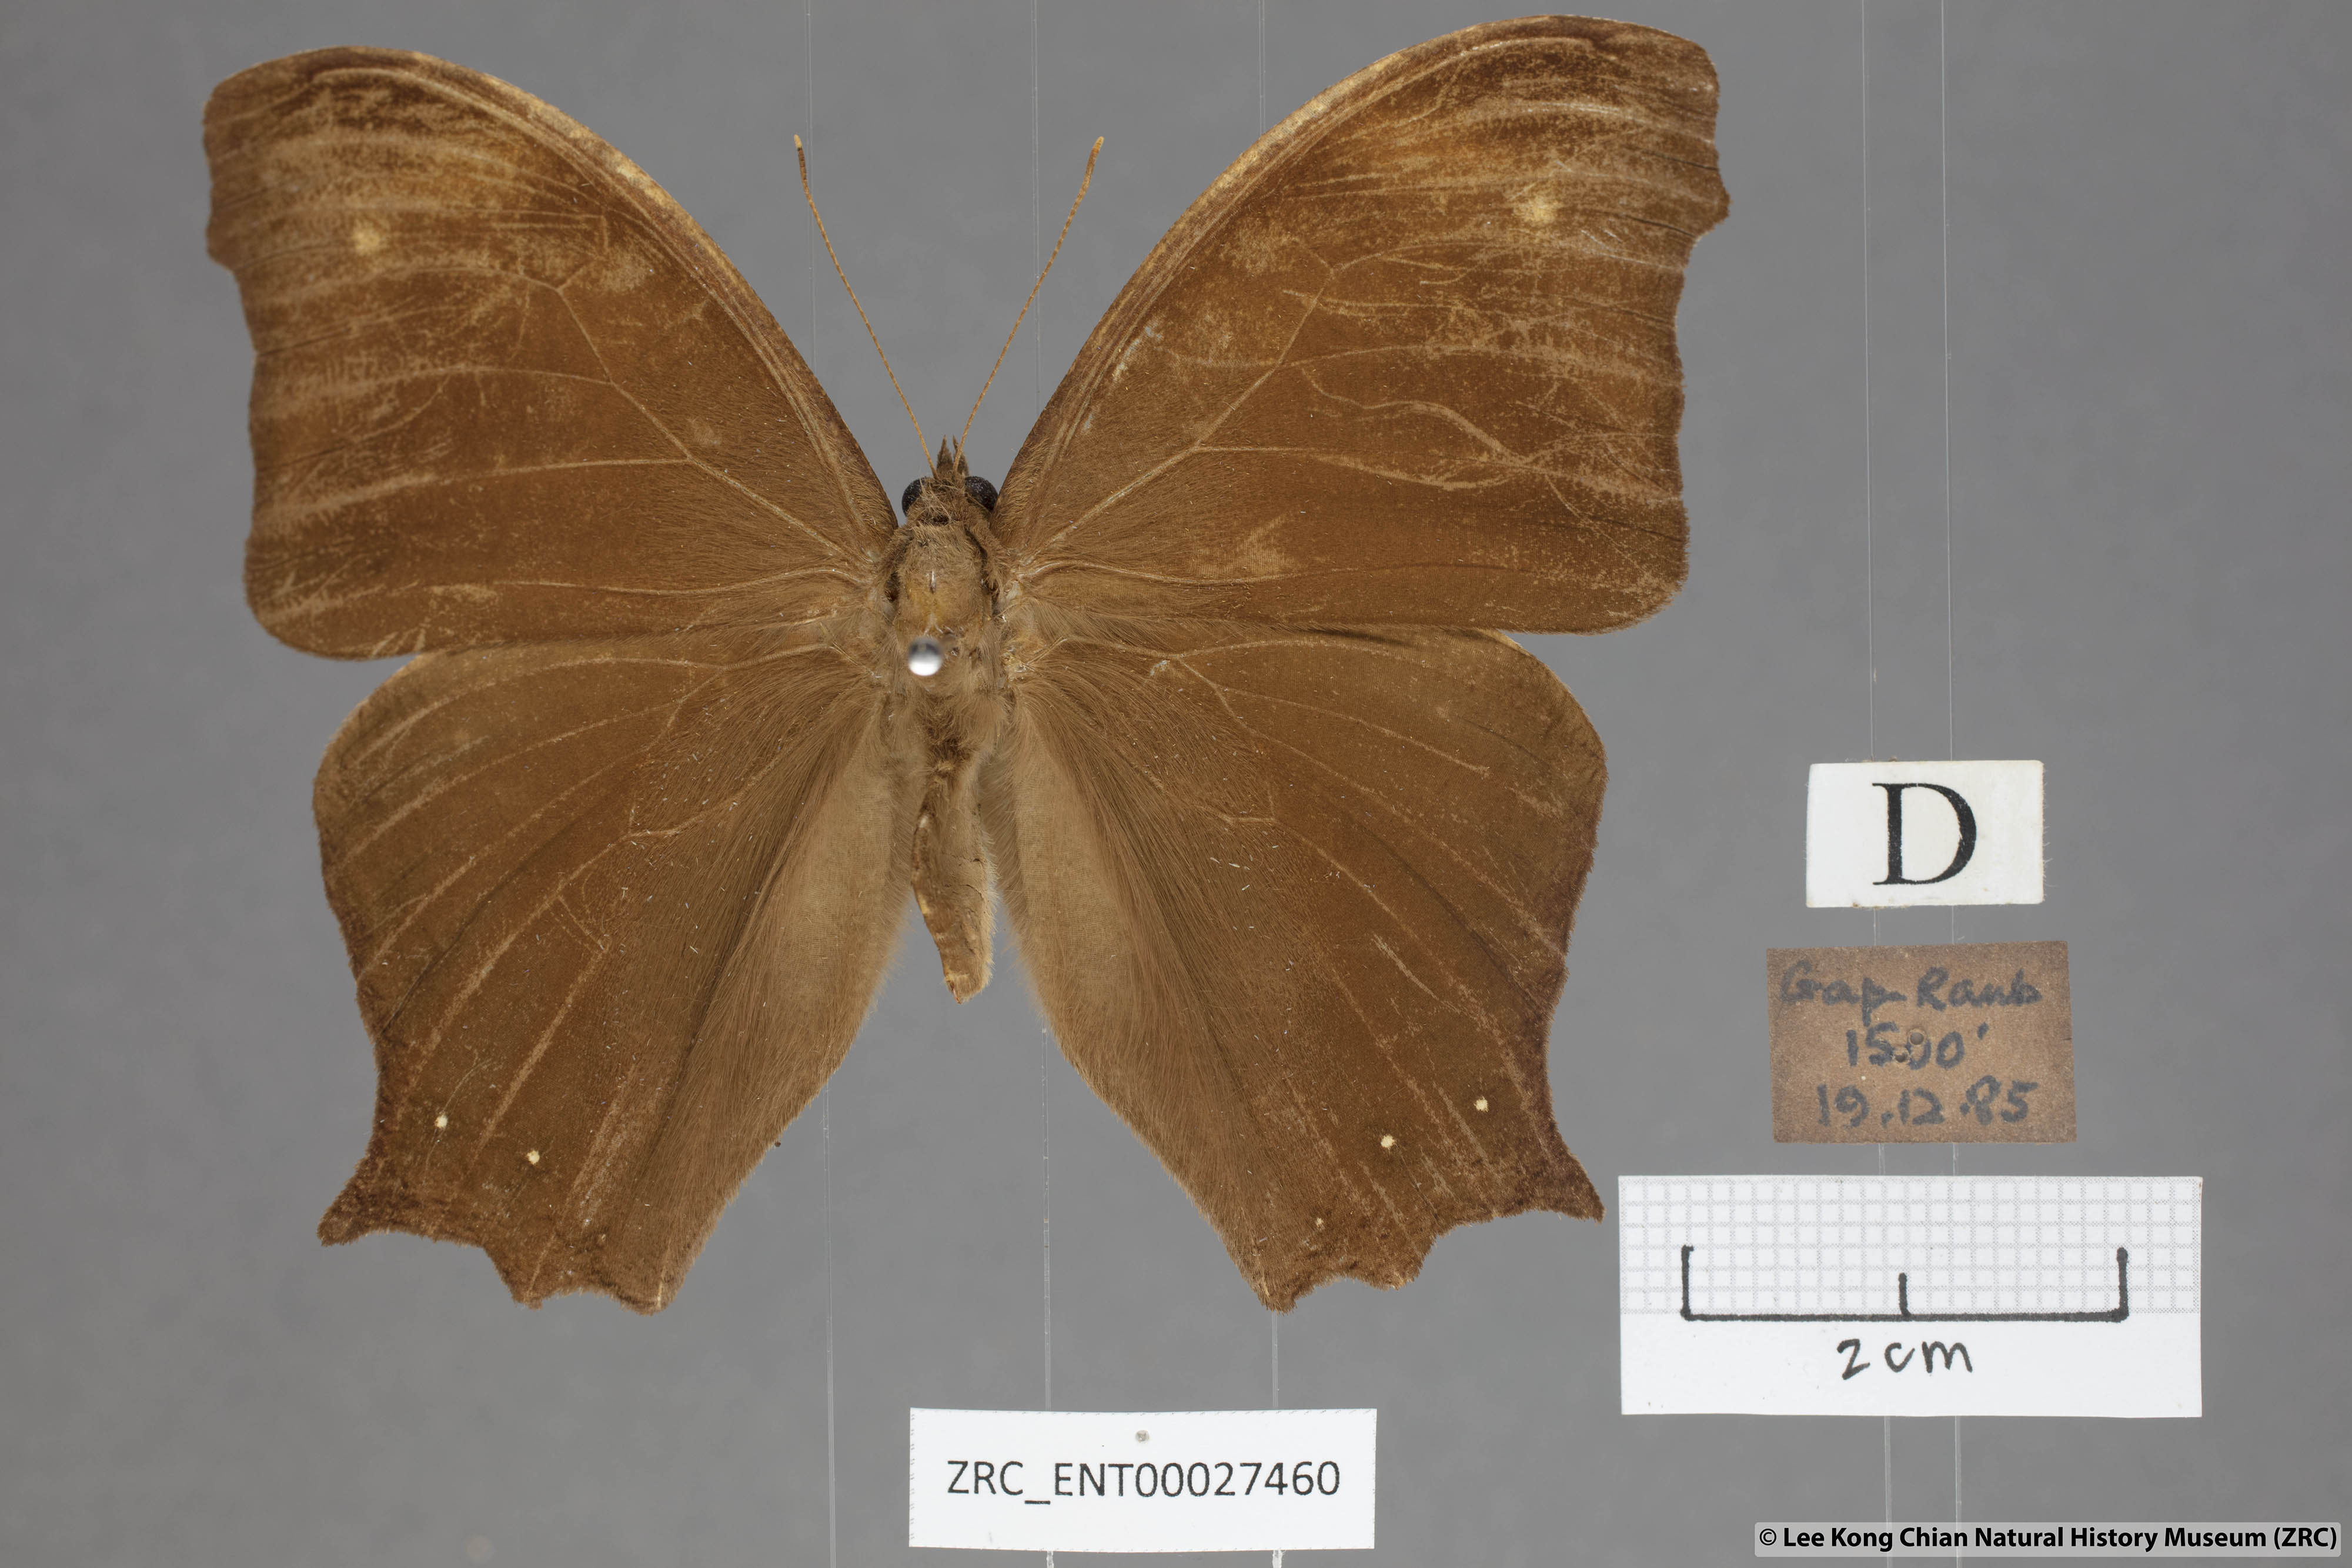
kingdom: Animalia
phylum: Arthropoda
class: Insecta
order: Lepidoptera
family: Nymphalidae
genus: Melanitis
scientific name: Melanitis phedima
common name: Dark evening brown
